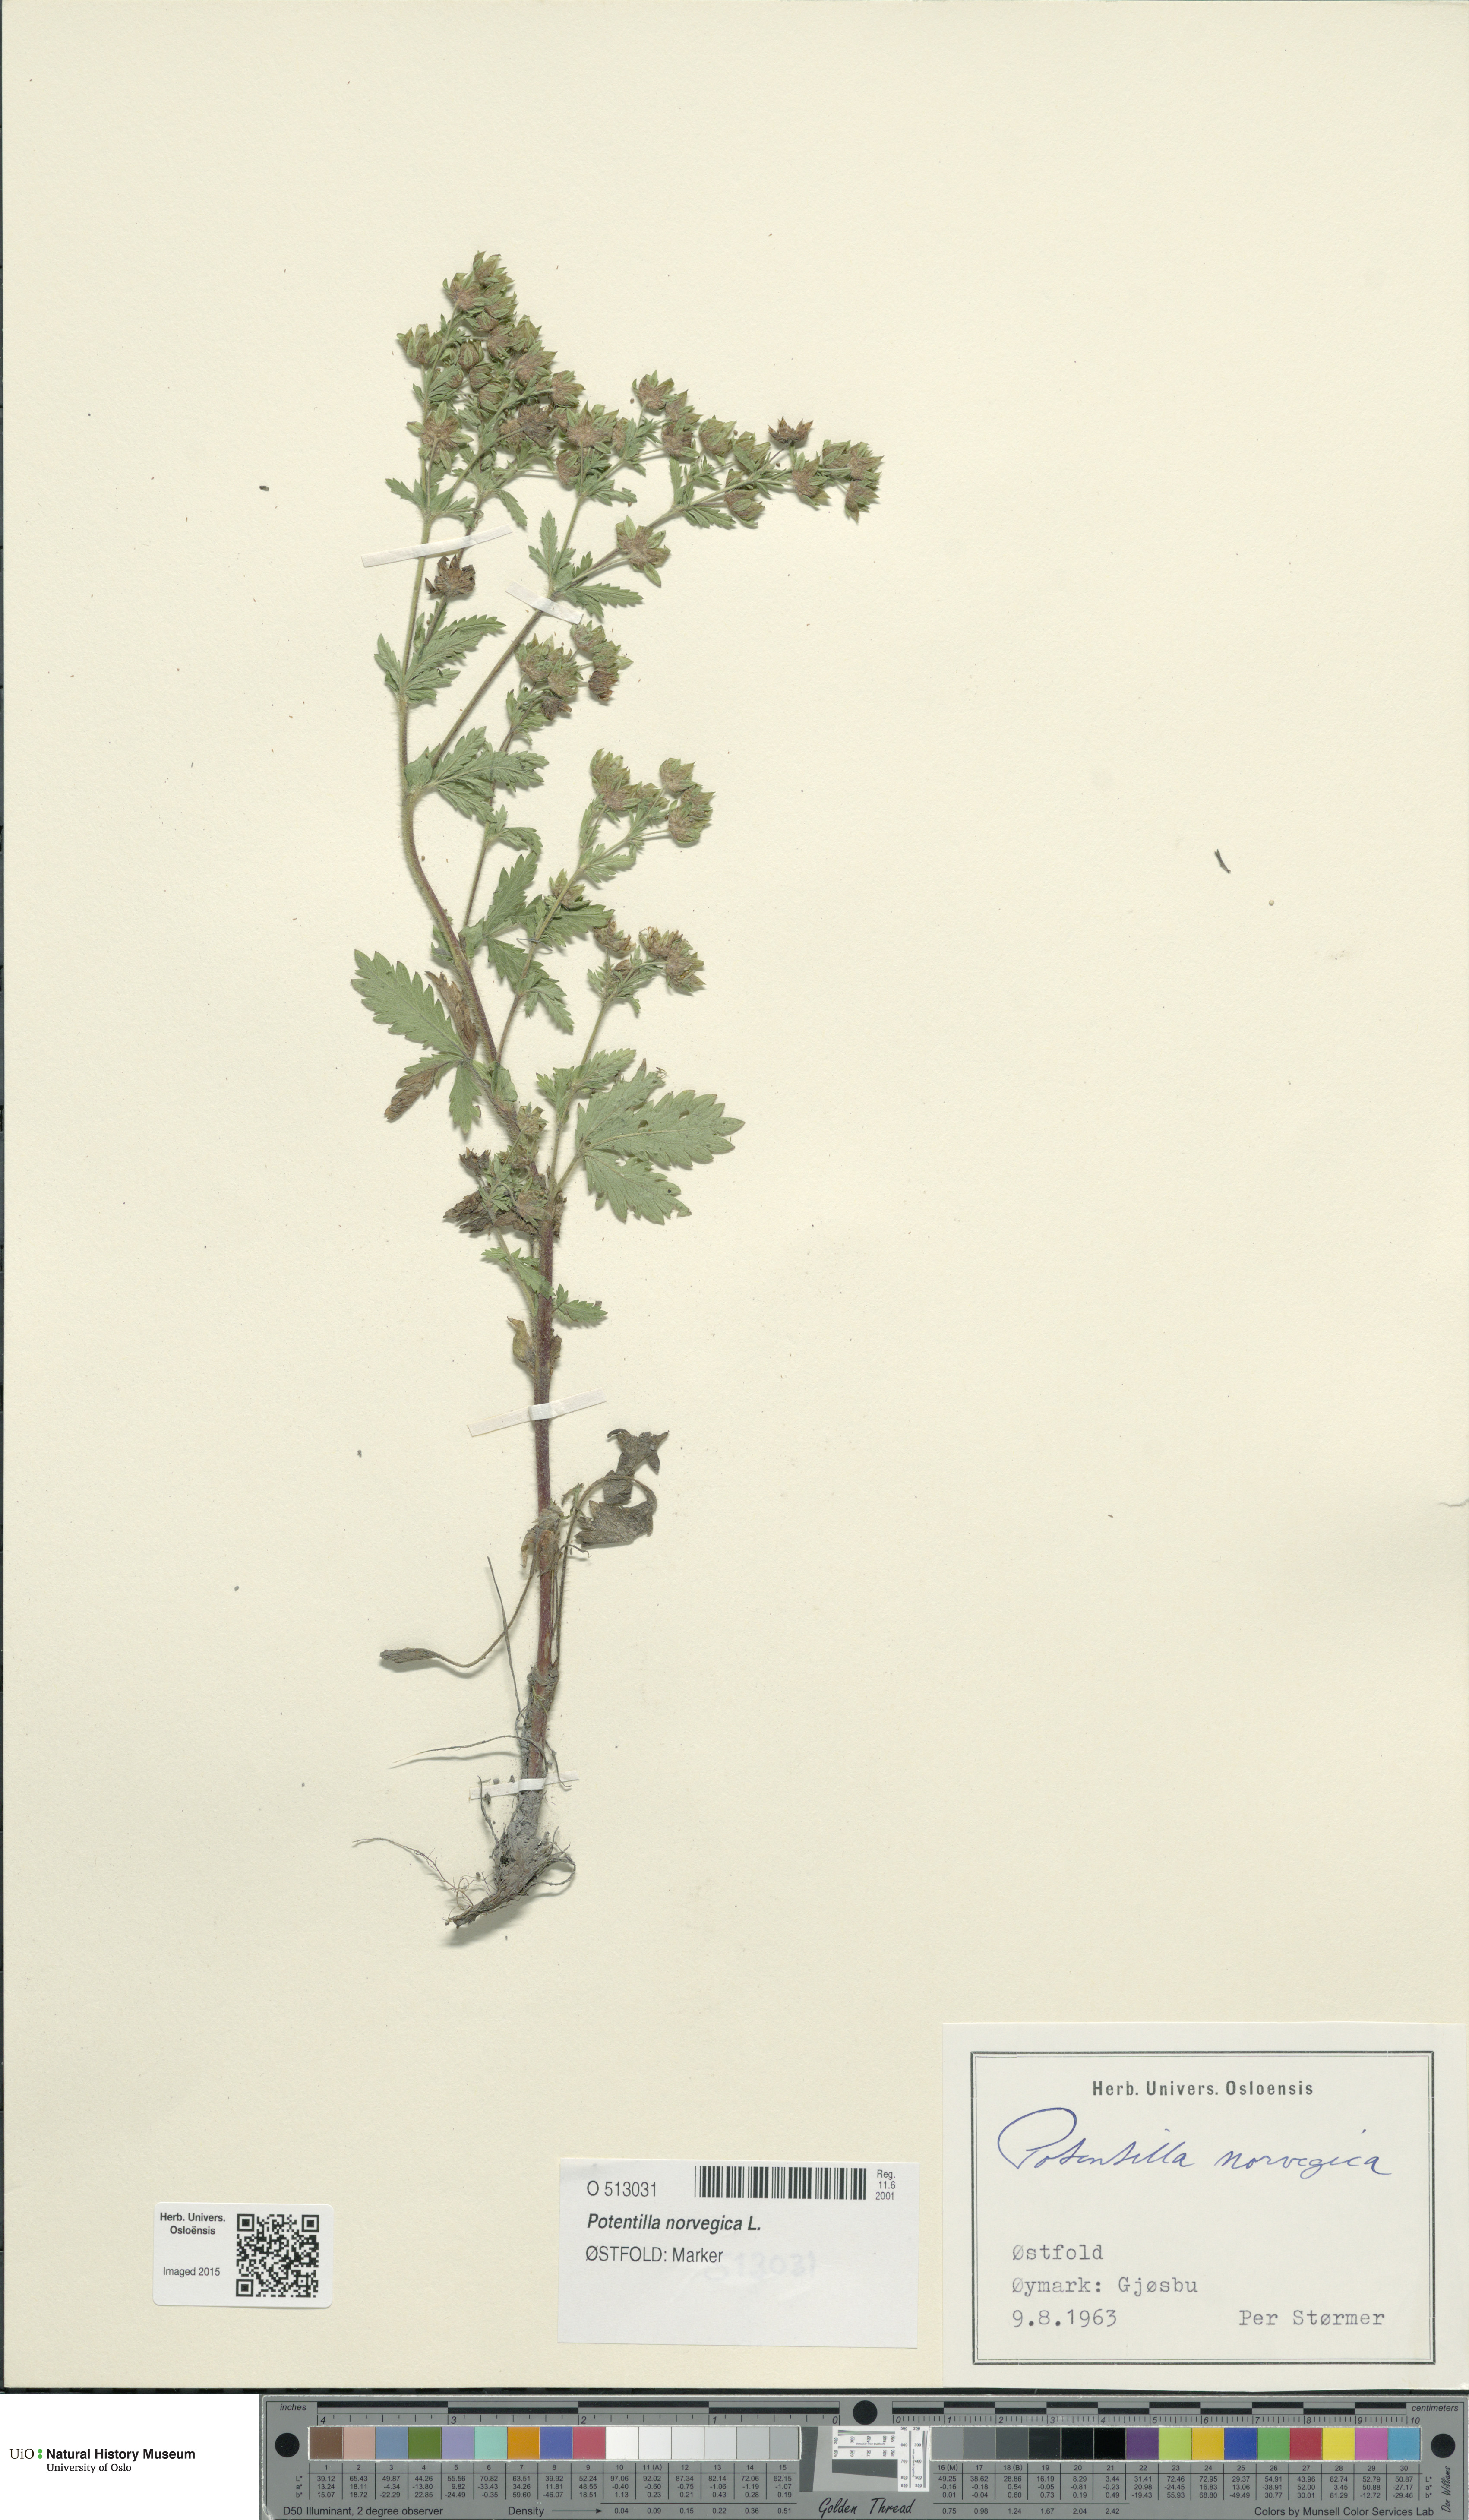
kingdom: Plantae
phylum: Tracheophyta
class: Magnoliopsida
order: Rosales
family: Rosaceae
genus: Potentilla
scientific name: Potentilla norvegica
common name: Ternate-leaved cinquefoil
